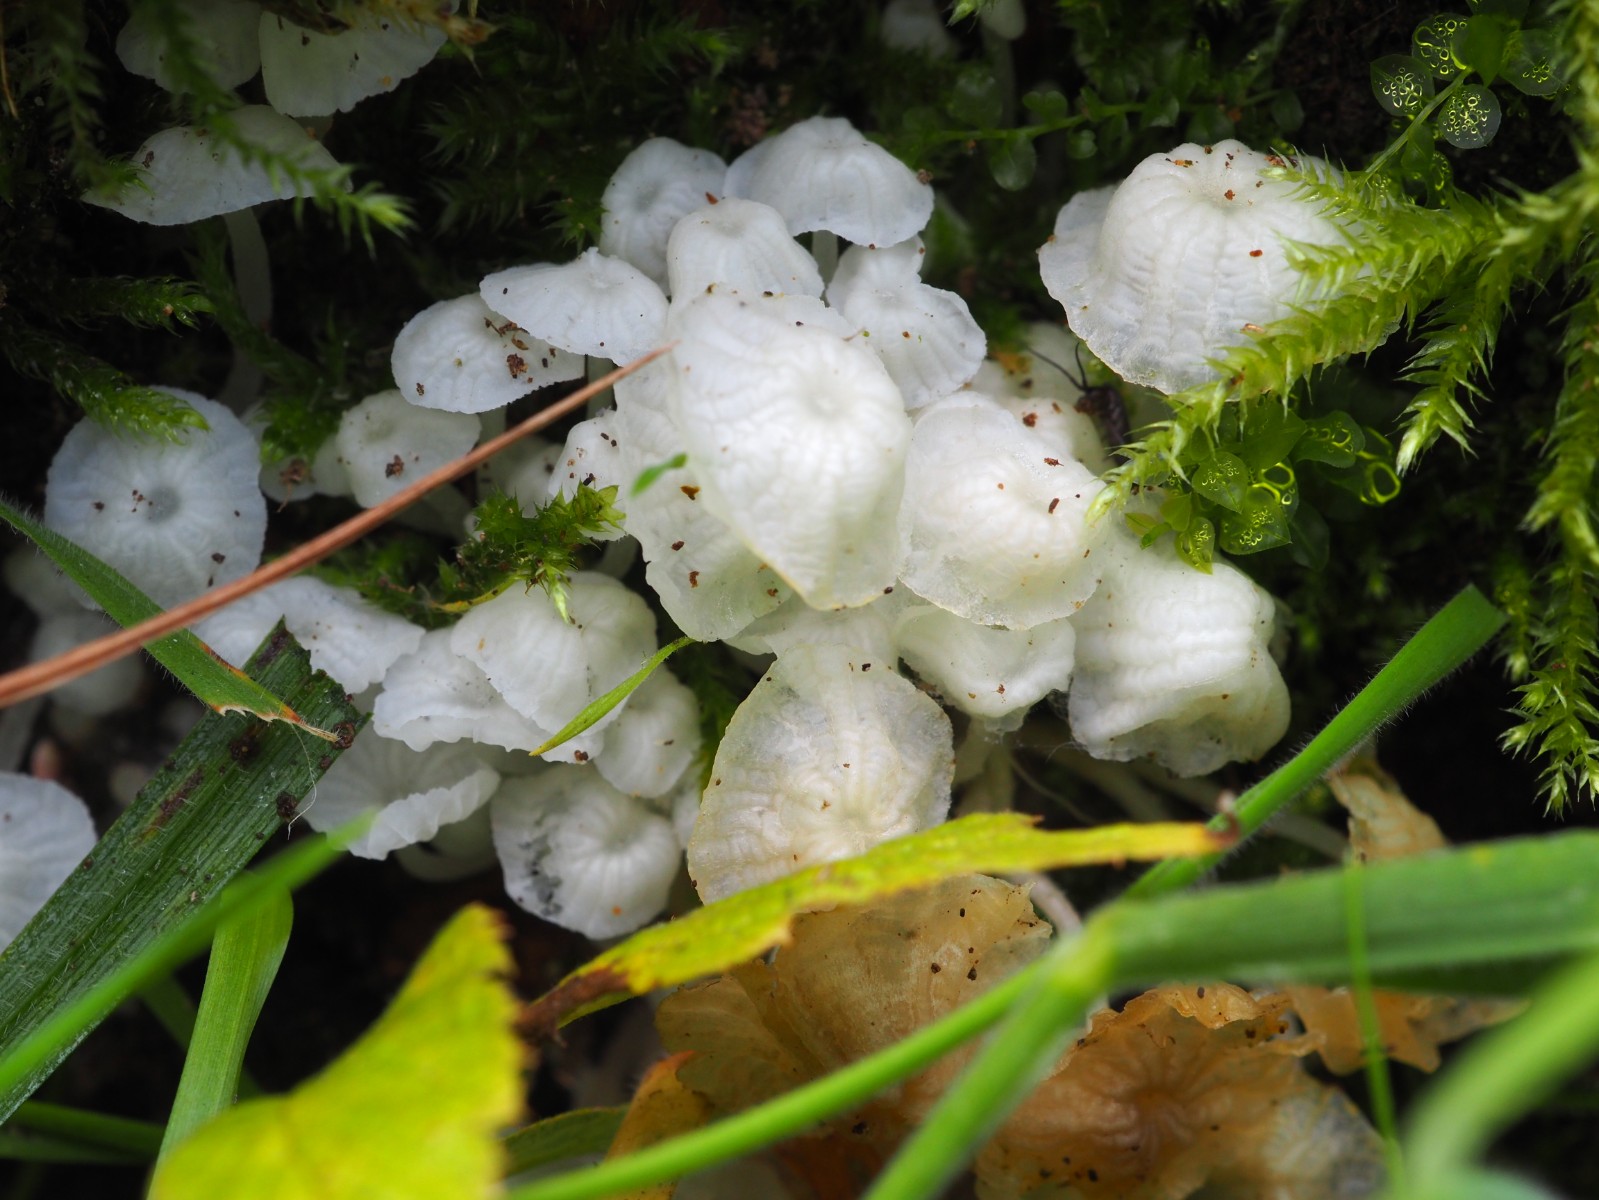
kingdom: Fungi
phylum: Basidiomycota
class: Agaricomycetes
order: Agaricales
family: Tricholomataceae
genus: Delicatula
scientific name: Delicatula integrella
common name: slørhuesvamp
